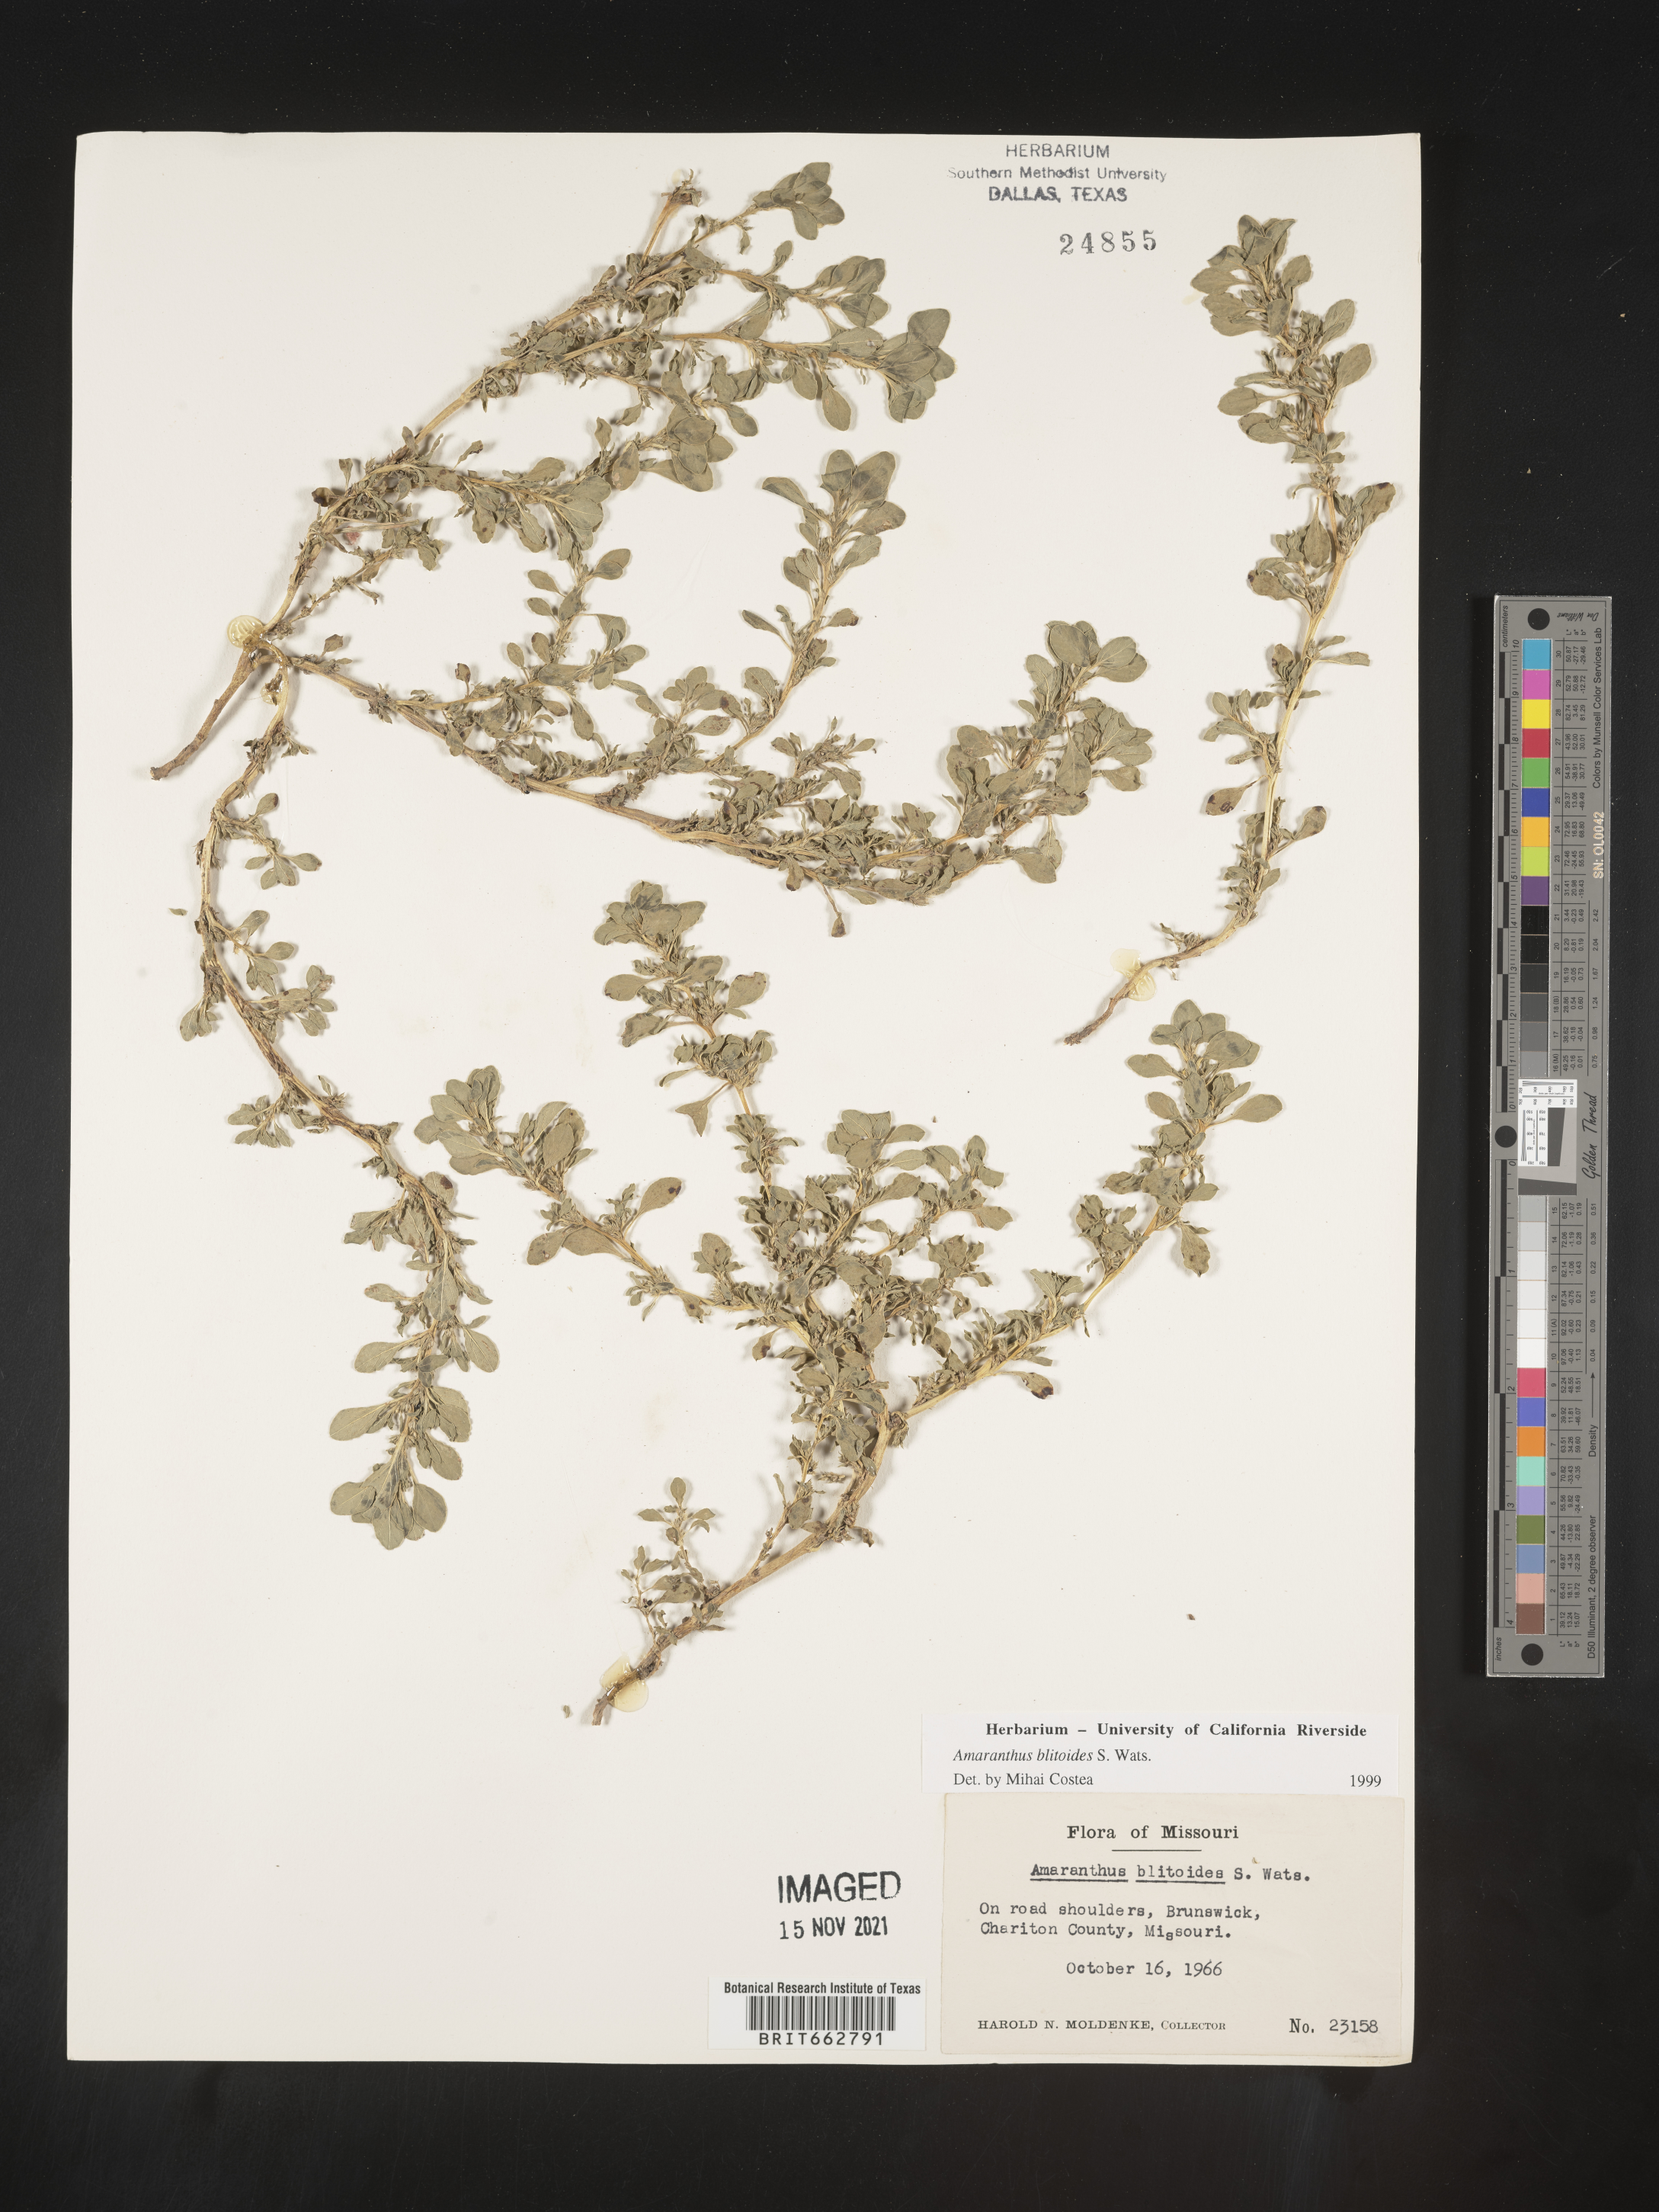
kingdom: Plantae
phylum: Tracheophyta
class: Magnoliopsida
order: Caryophyllales
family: Amaranthaceae
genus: Amaranthus
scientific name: Amaranthus blitoides
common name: Prostrate pigweed
